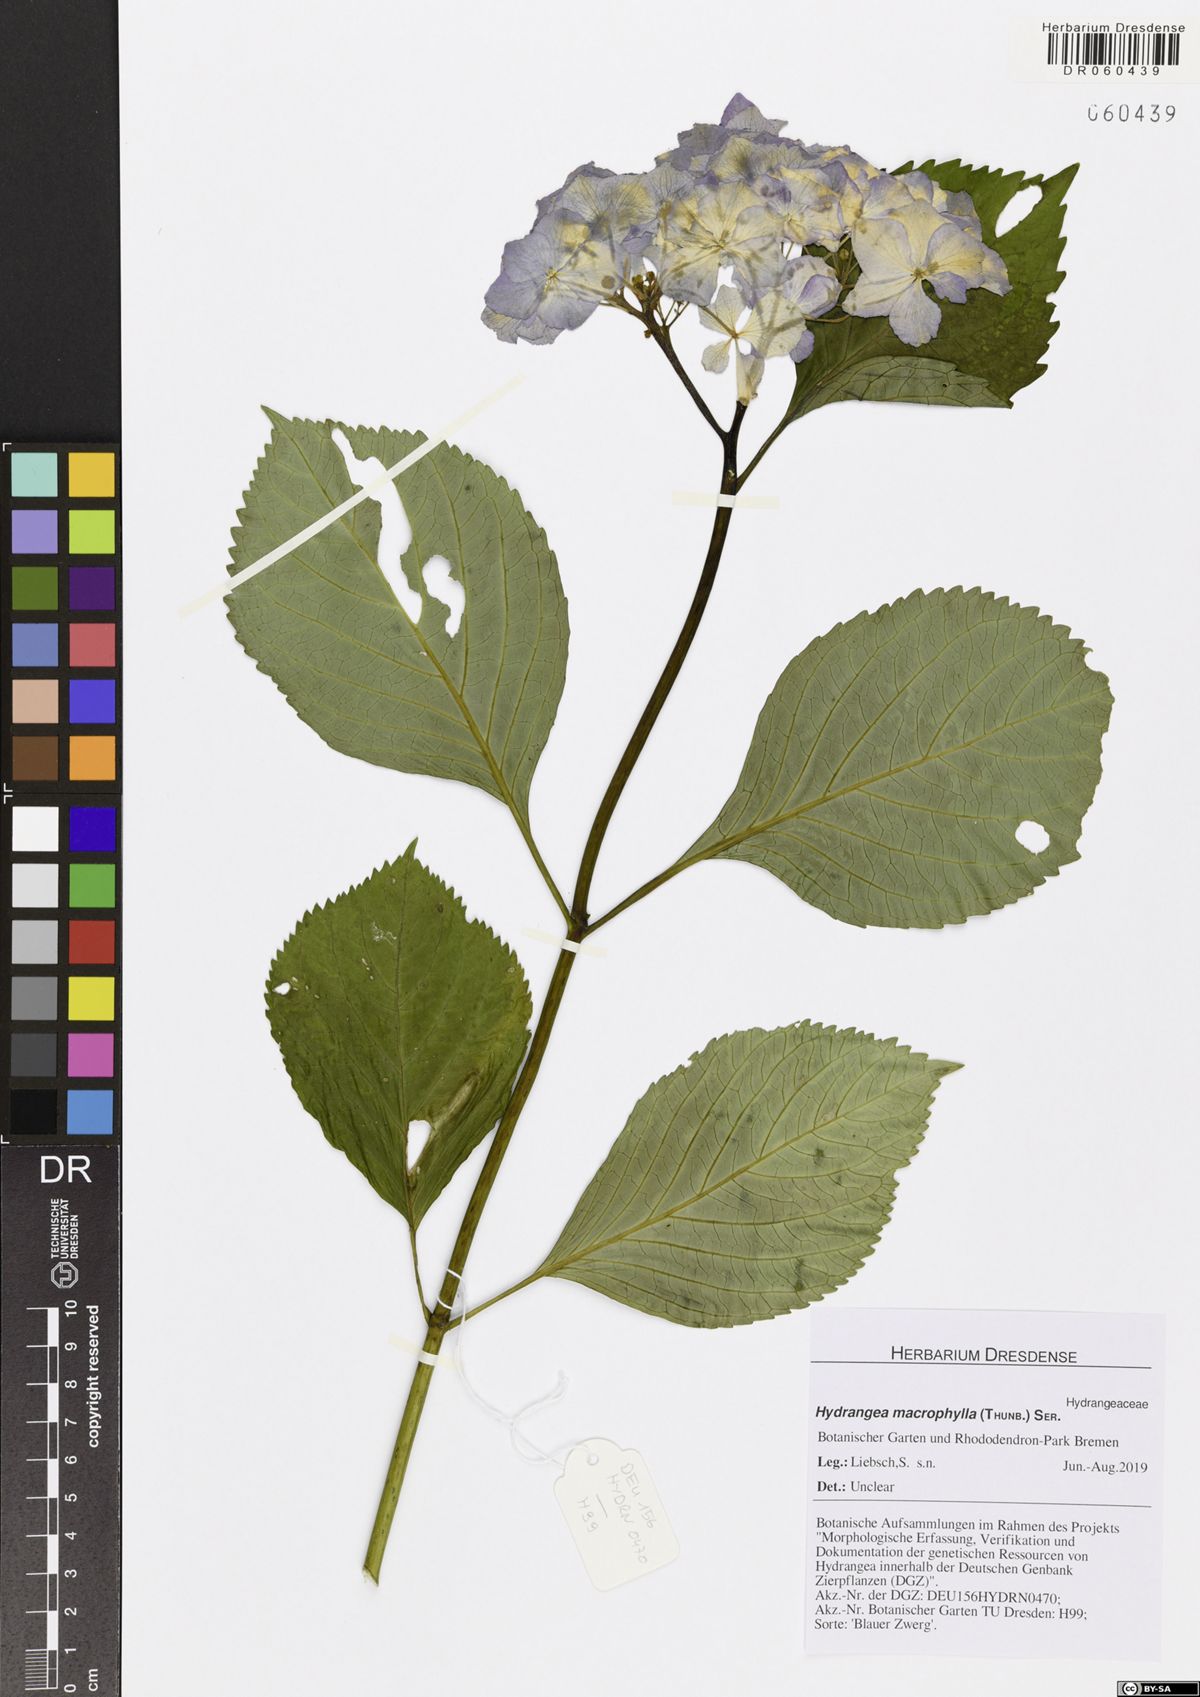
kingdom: Plantae
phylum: Tracheophyta
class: Magnoliopsida
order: Cornales
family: Hydrangeaceae
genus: Hydrangea
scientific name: Hydrangea macrophylla
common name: Hydrangea
